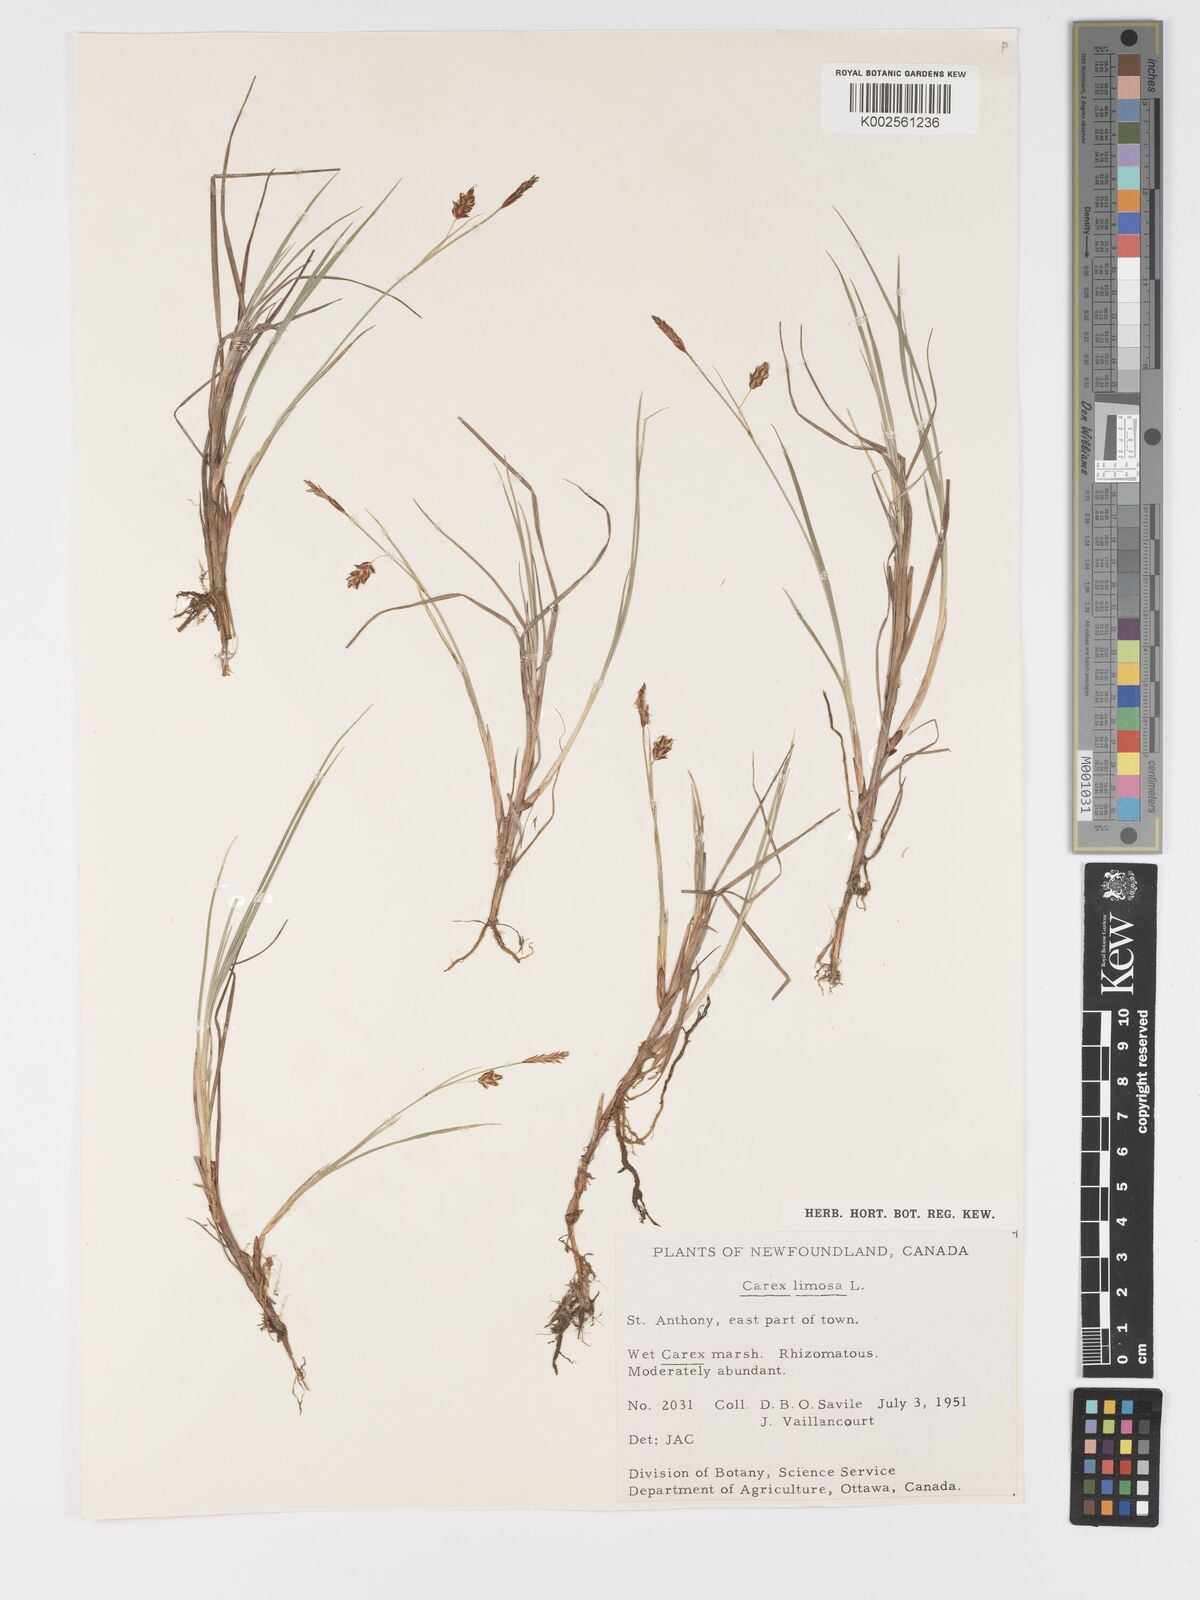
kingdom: Plantae
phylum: Tracheophyta
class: Liliopsida
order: Poales
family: Cyperaceae
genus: Carex
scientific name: Carex limosa
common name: Bog sedge
